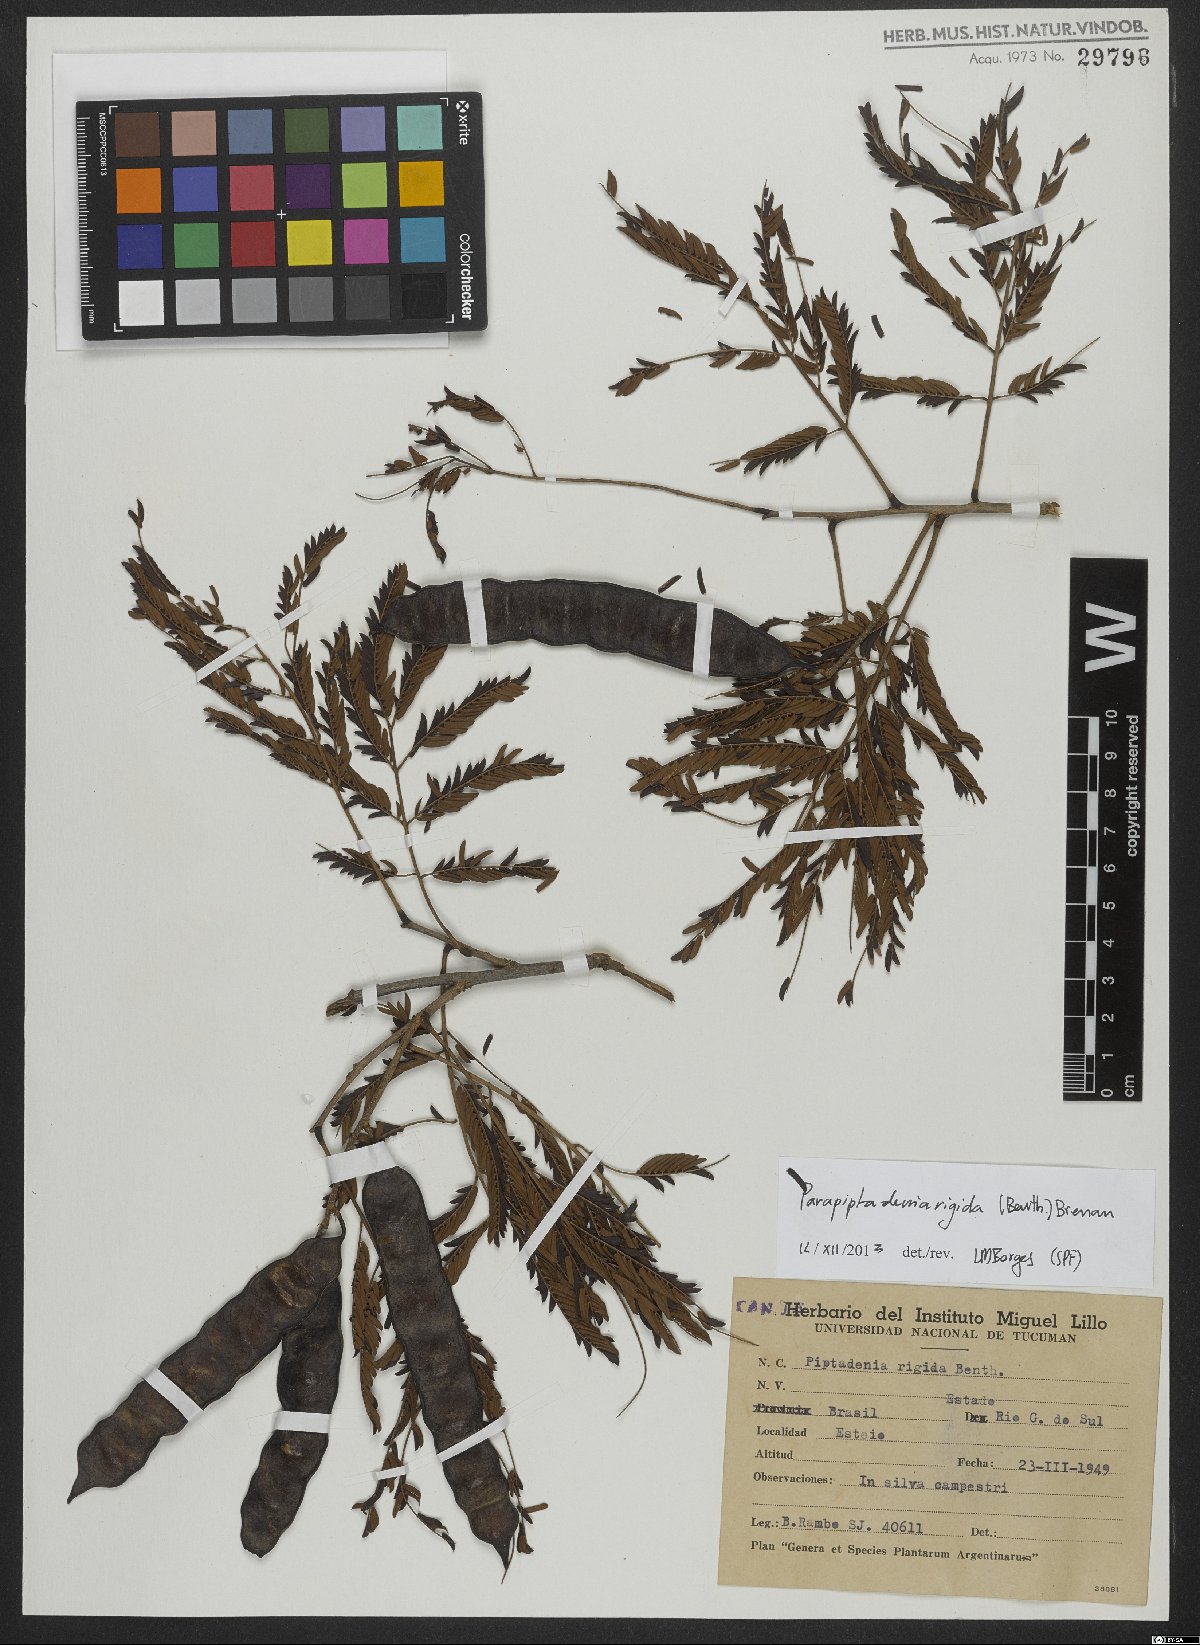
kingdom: Plantae
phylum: Tracheophyta
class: Magnoliopsida
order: Fabales
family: Fabaceae
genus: Parapiptadenia
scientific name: Parapiptadenia rigida
